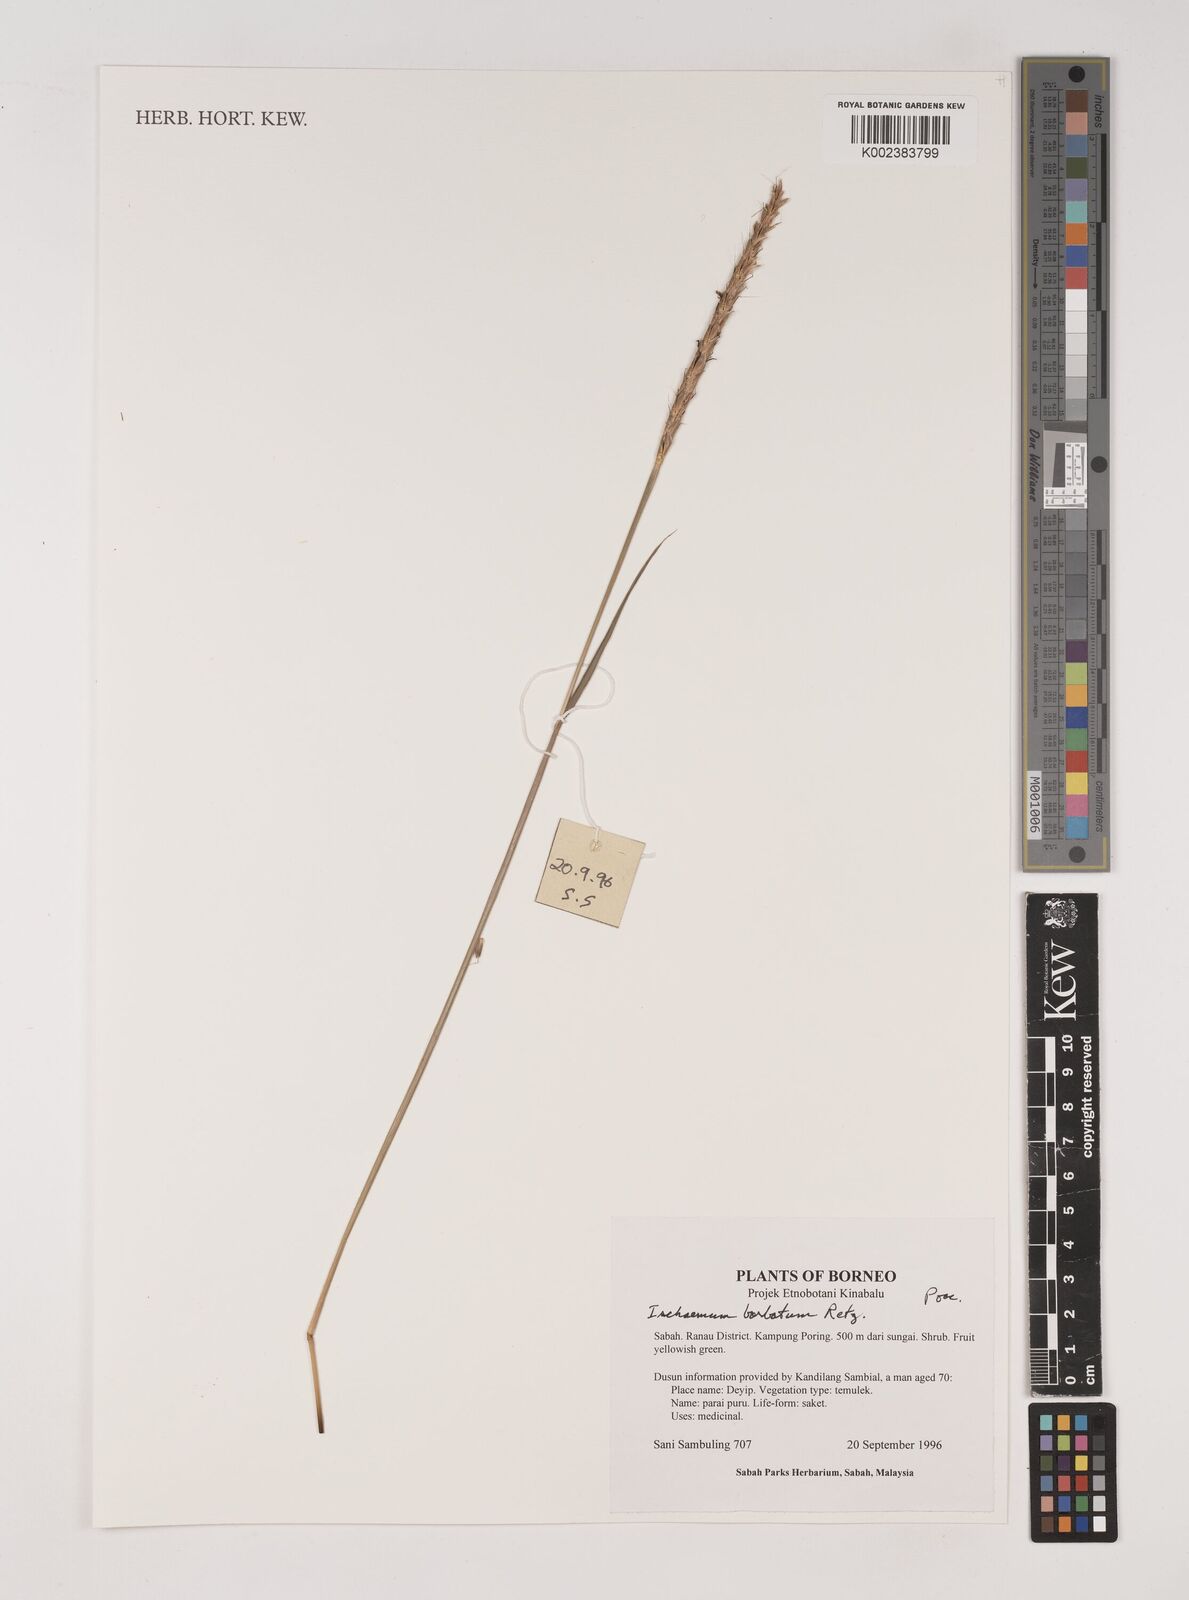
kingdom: Plantae
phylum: Tracheophyta
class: Liliopsida
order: Poales
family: Poaceae
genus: Ischaemum
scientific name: Ischaemum barbatum
